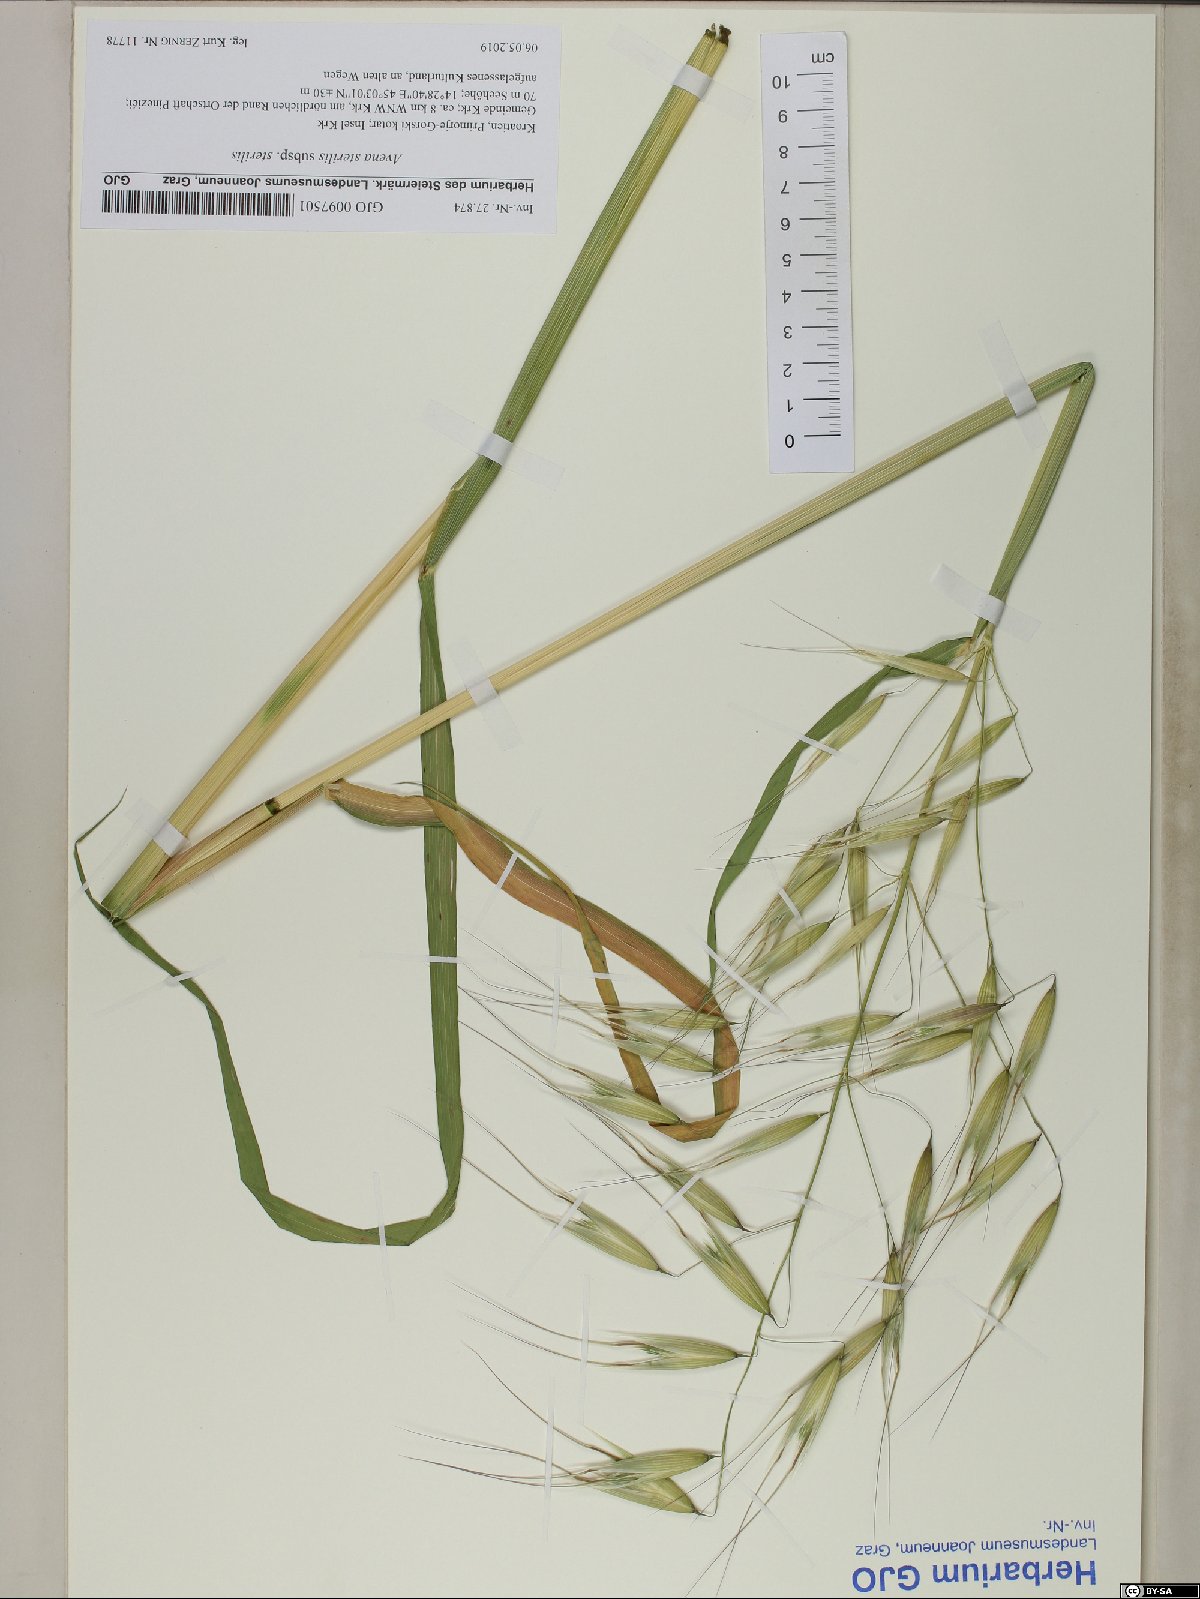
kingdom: Plantae
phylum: Tracheophyta
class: Liliopsida
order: Poales
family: Poaceae
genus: Avena
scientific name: Avena sterilis
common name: Animated oat
